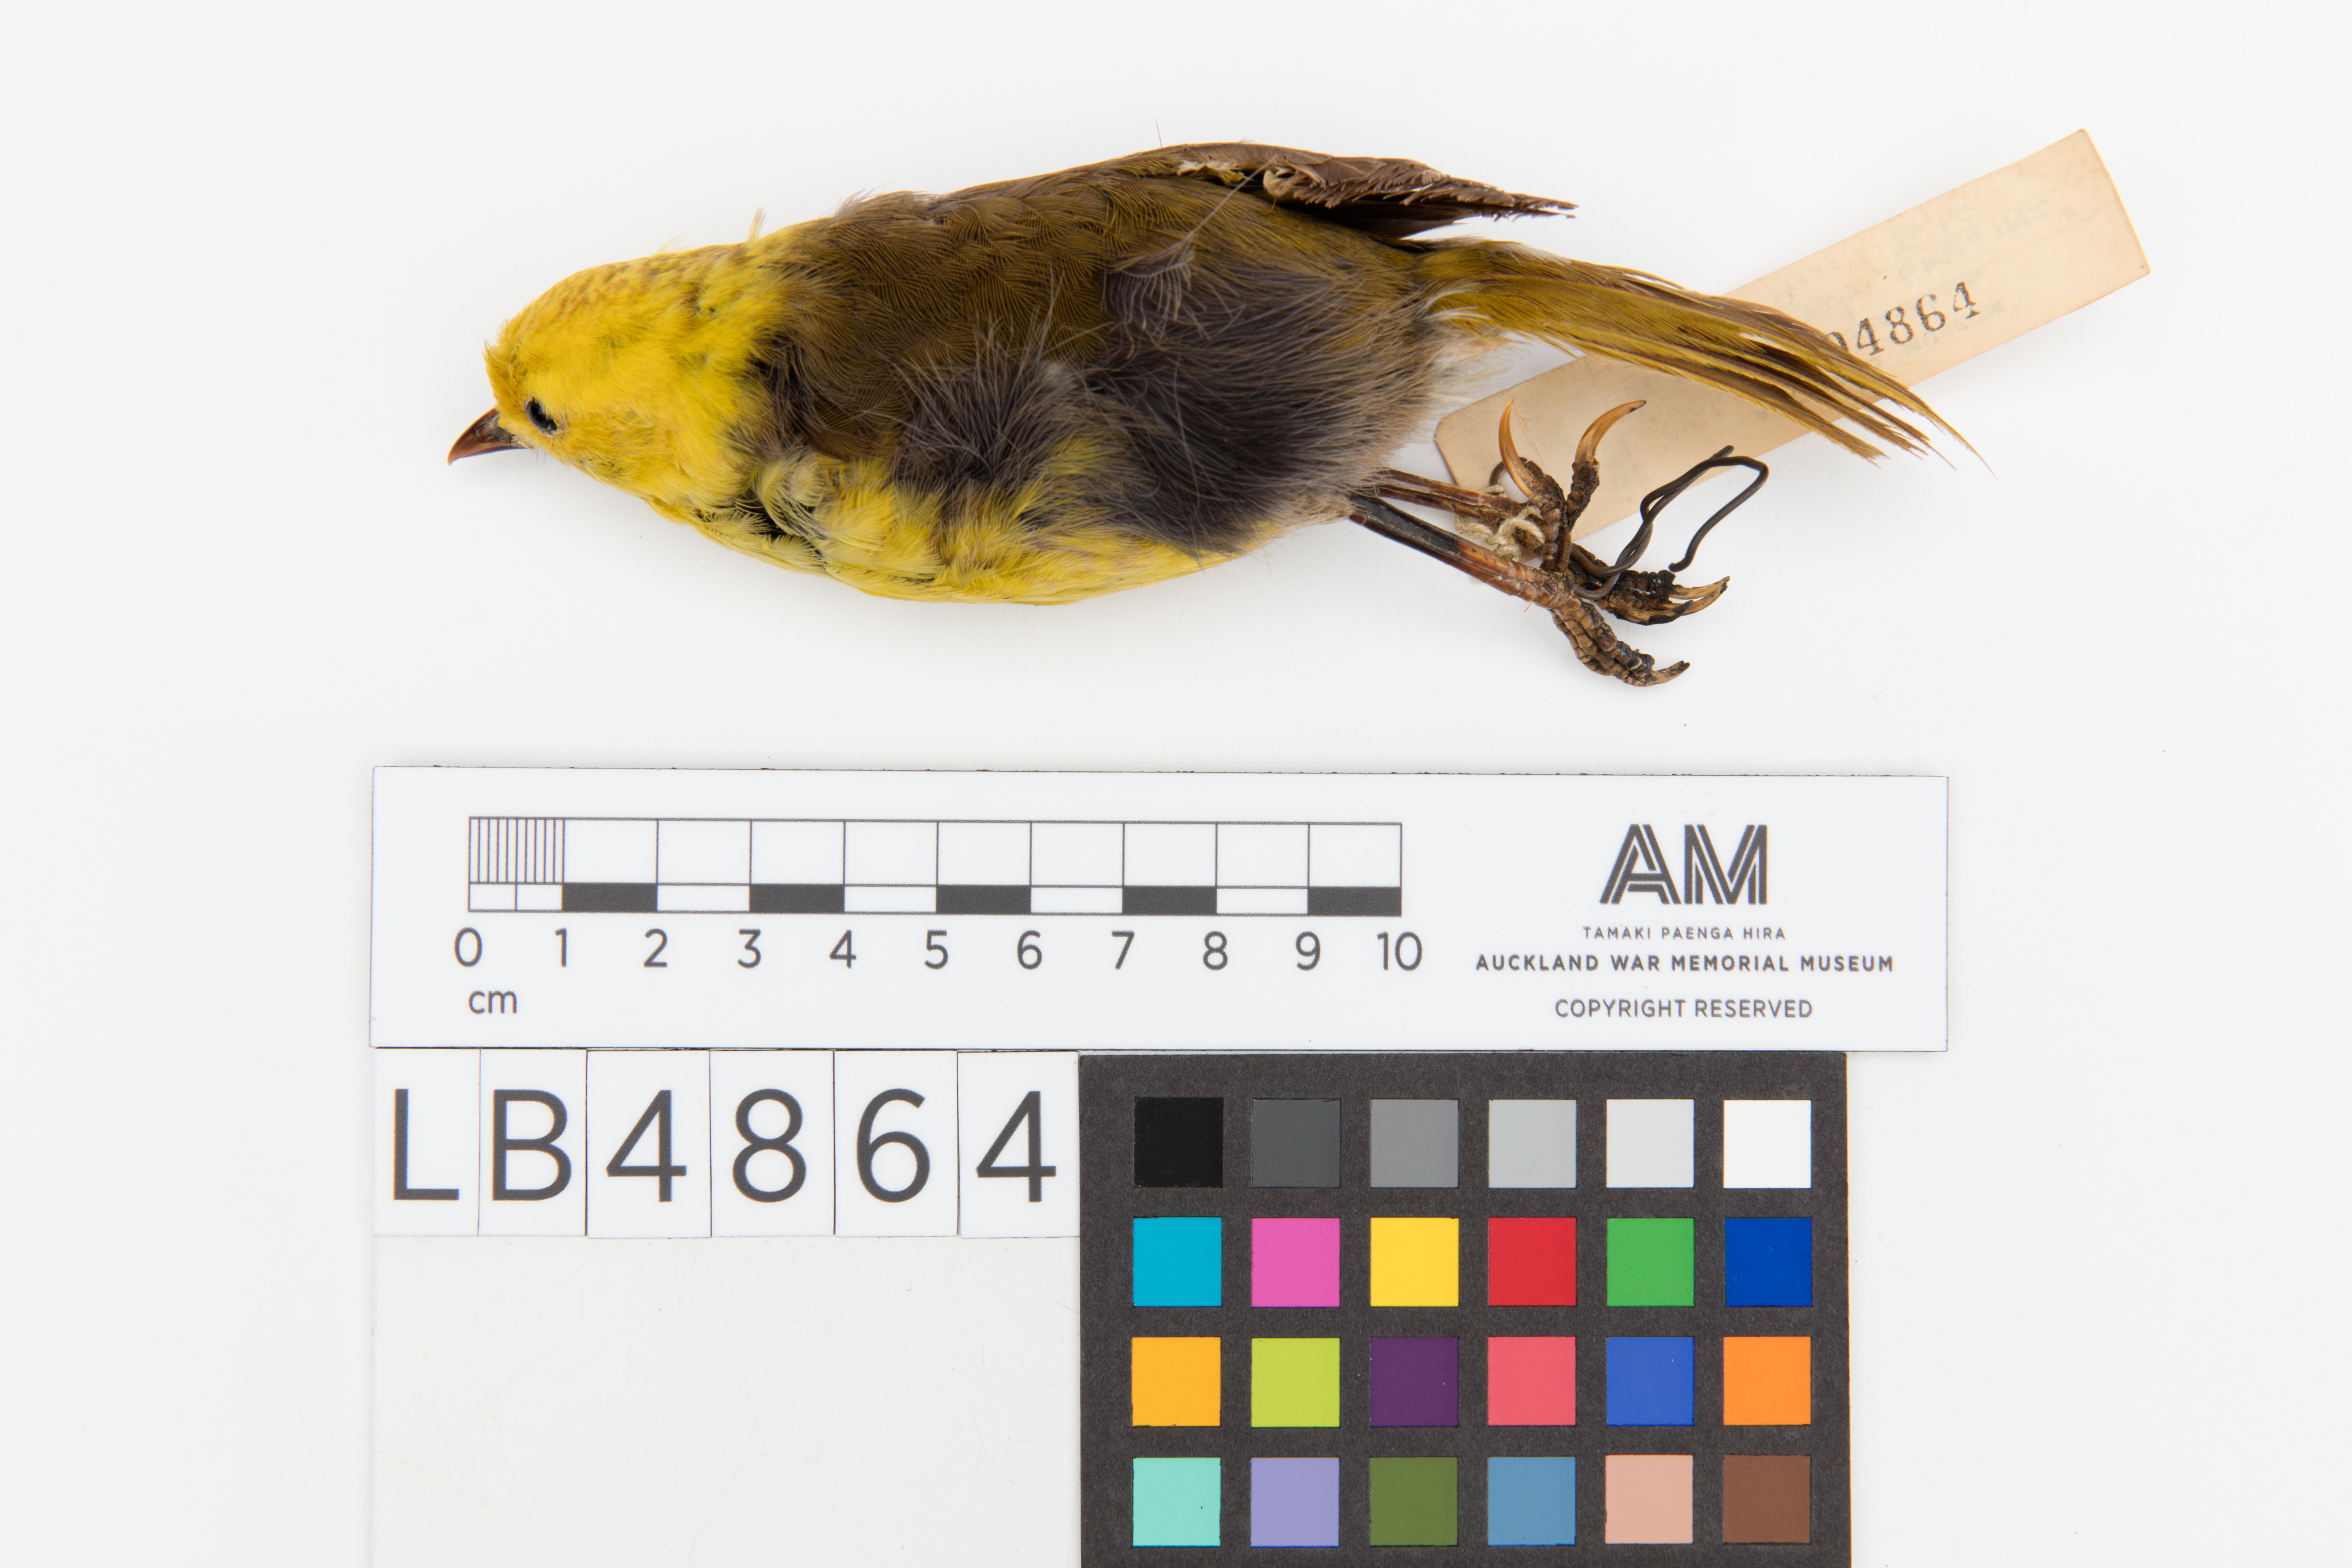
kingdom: Animalia
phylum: Chordata
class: Aves
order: Passeriformes
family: Acanthizidae
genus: Mohoua
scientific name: Mohoua ochrocephala
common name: Yellowhead
